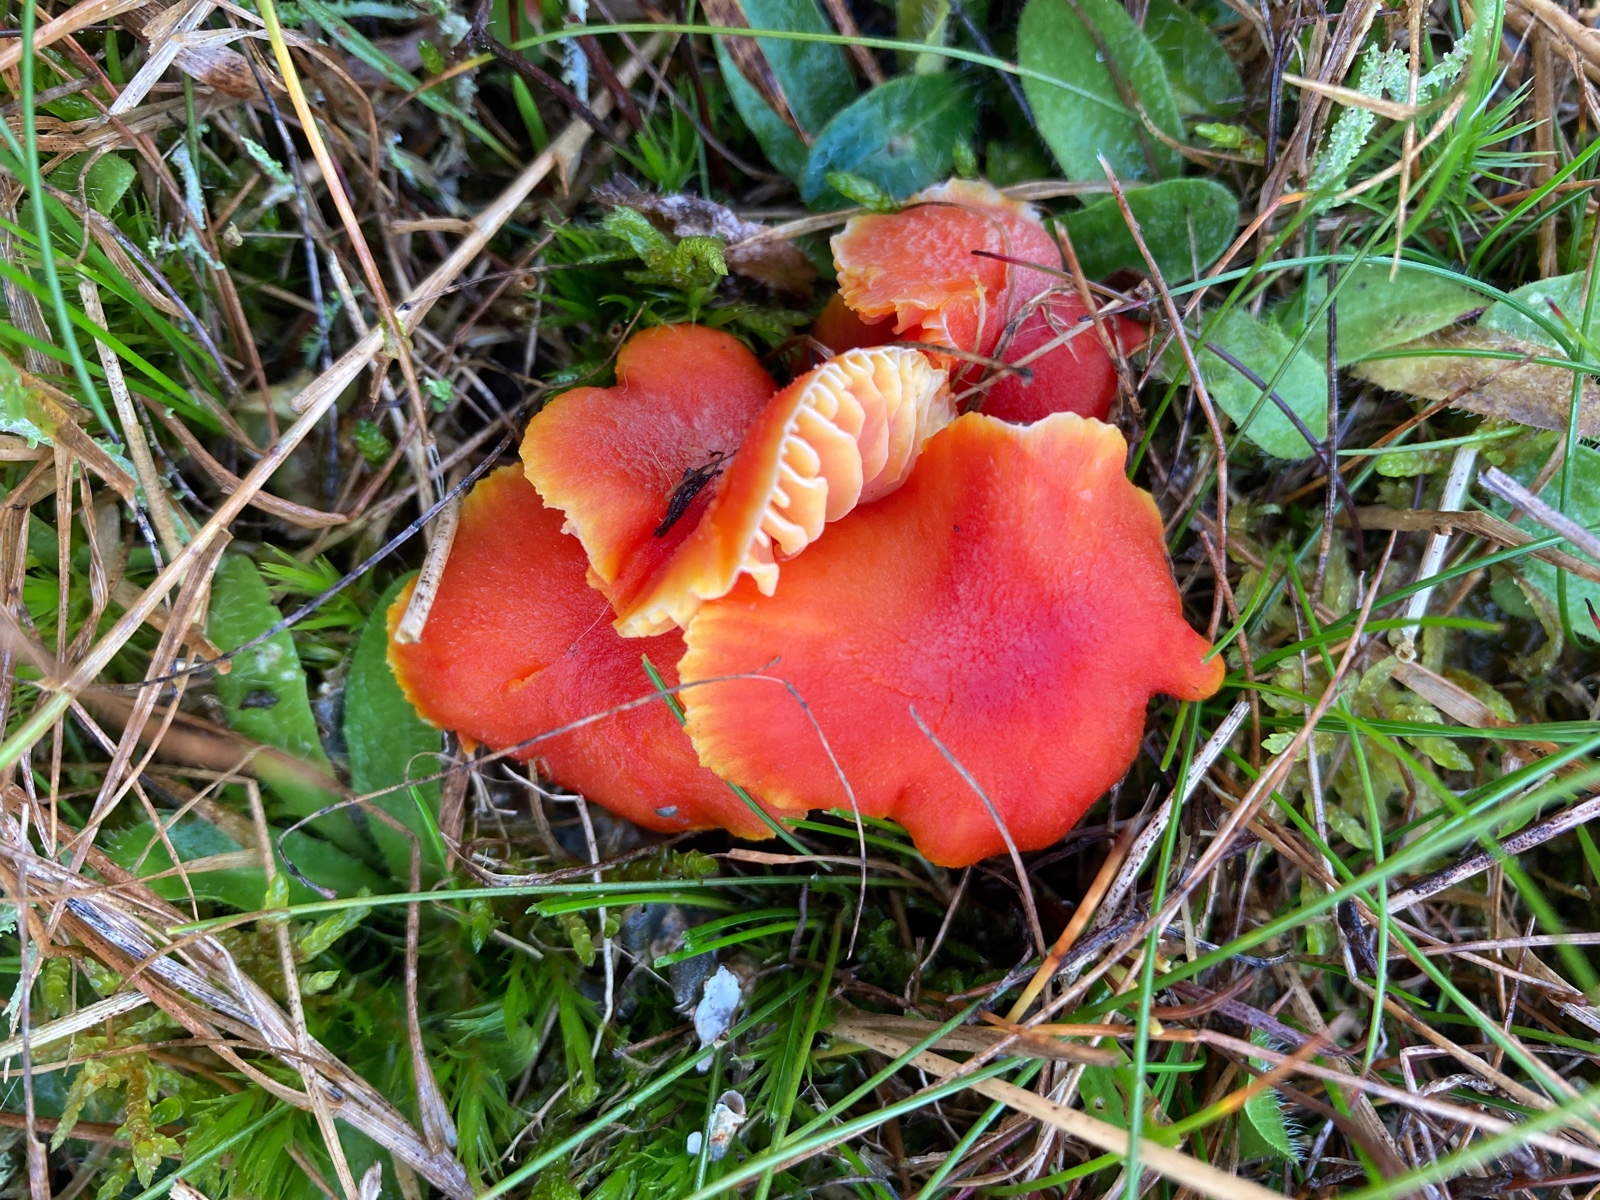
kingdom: Fungi
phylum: Basidiomycota
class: Agaricomycetes
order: Agaricales
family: Hygrophoraceae
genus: Hygrocybe
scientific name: Hygrocybe miniata
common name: mønje-vokshat
